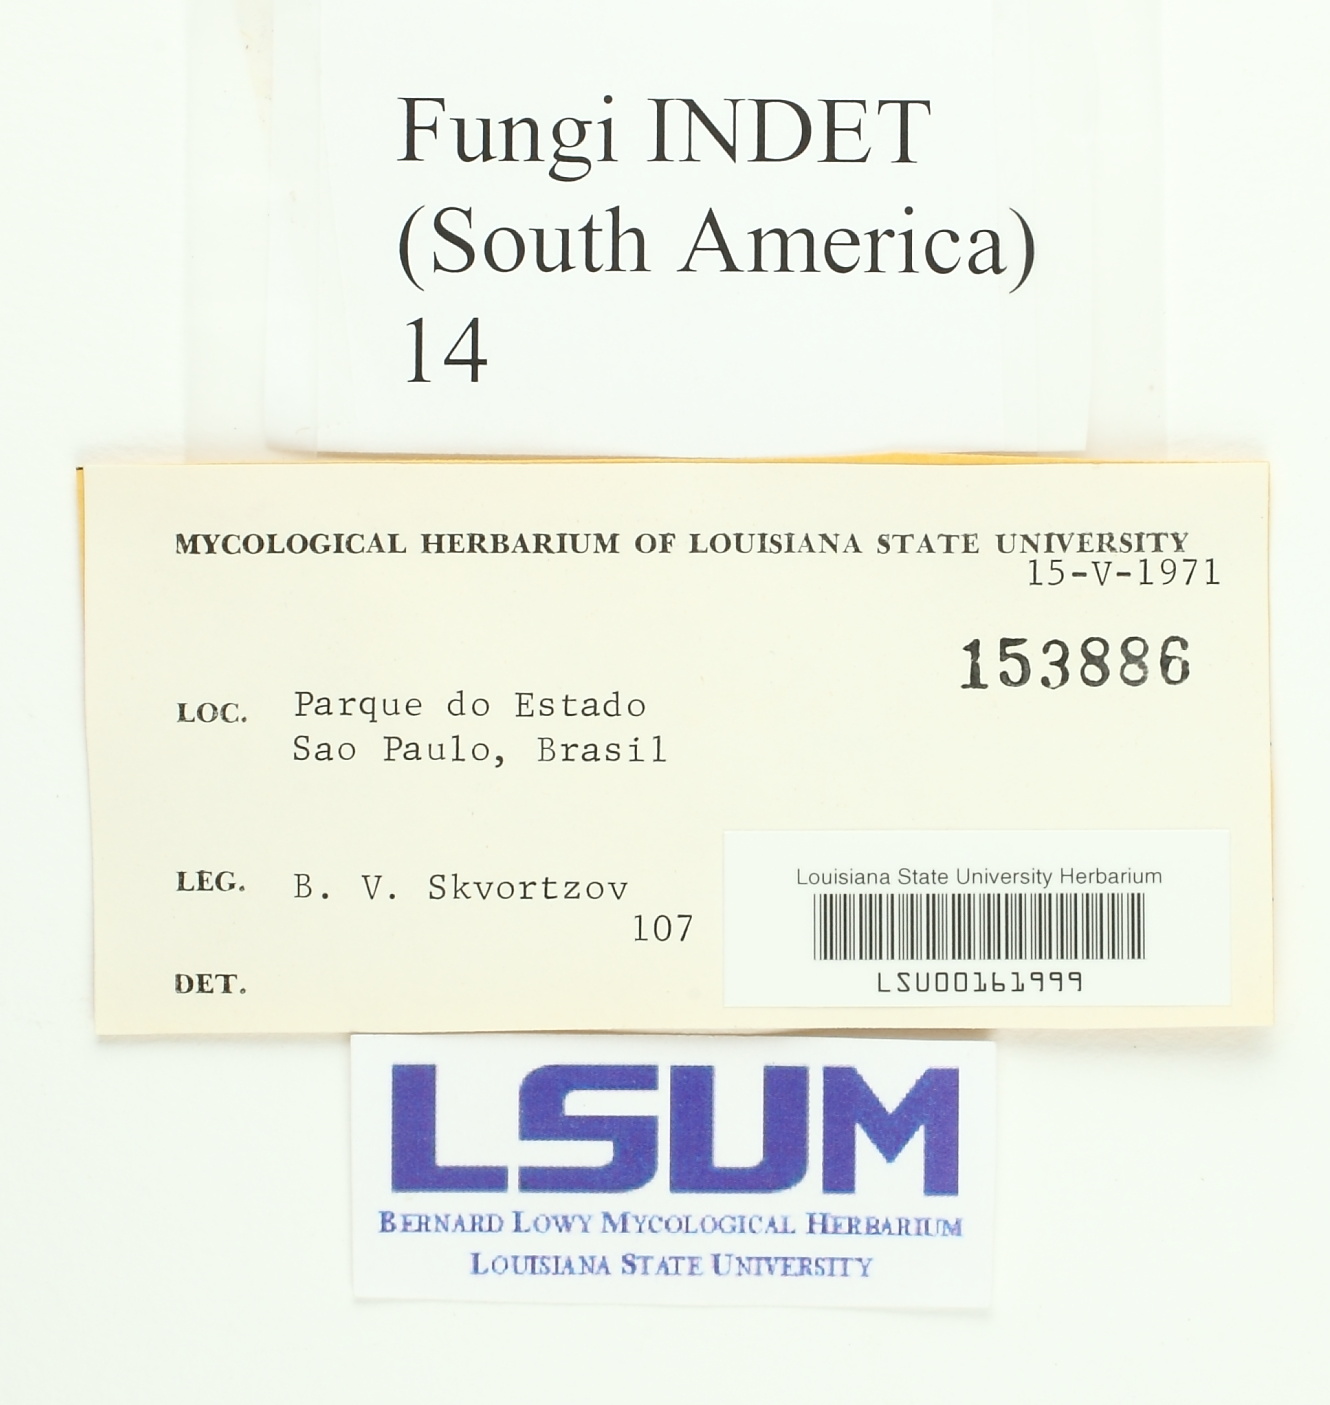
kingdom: Fungi
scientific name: Fungi
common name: Fungi
